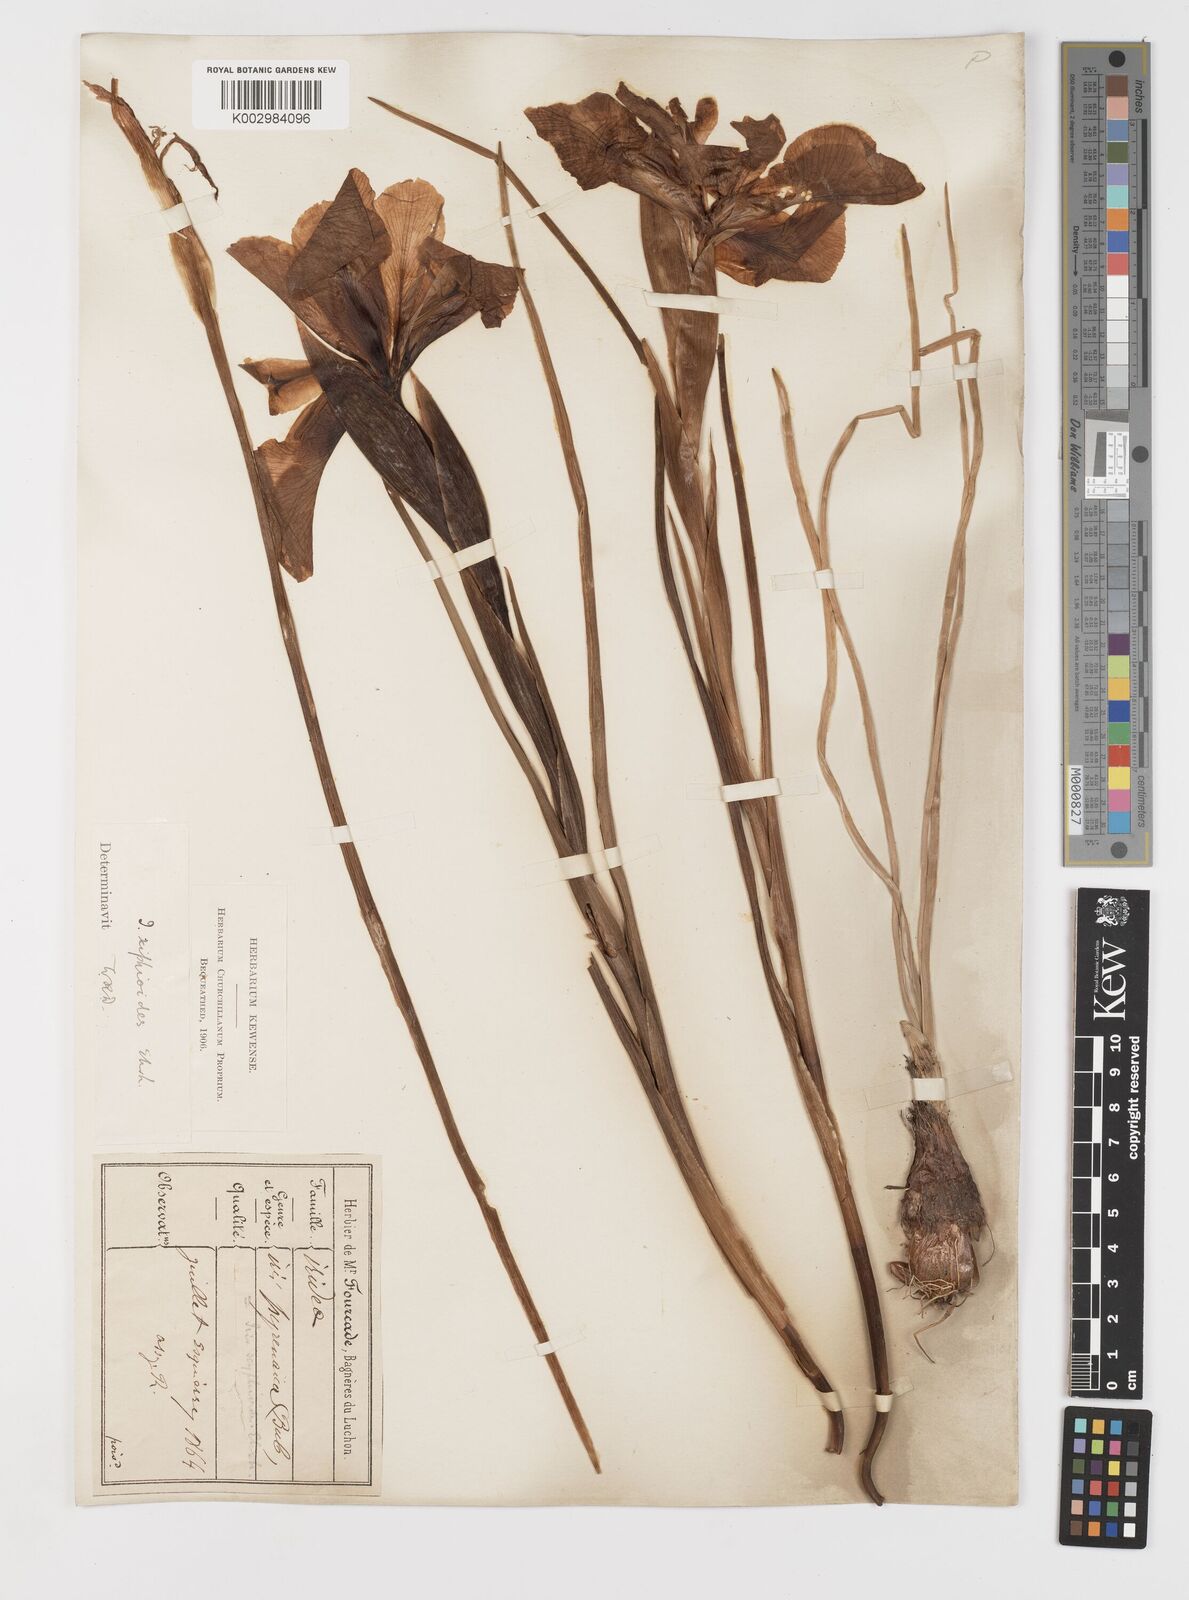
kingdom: Plantae
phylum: Tracheophyta
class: Liliopsida
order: Asparagales
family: Iridaceae
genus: Iris
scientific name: Iris jacquinii
